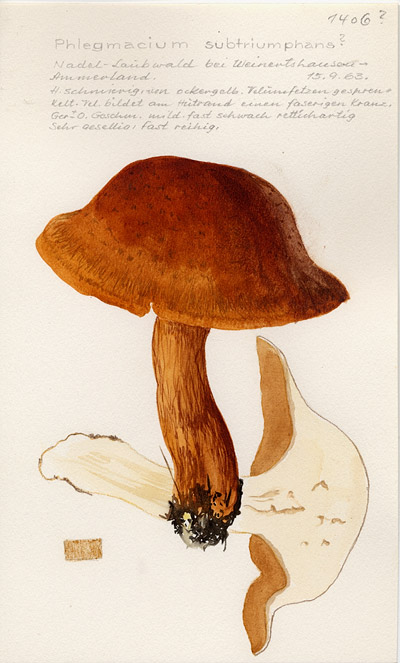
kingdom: Fungi
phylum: Basidiomycota
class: Agaricomycetes
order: Agaricales
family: Cortinariaceae
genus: Phlegmacium
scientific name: Phlegmacium saginum
